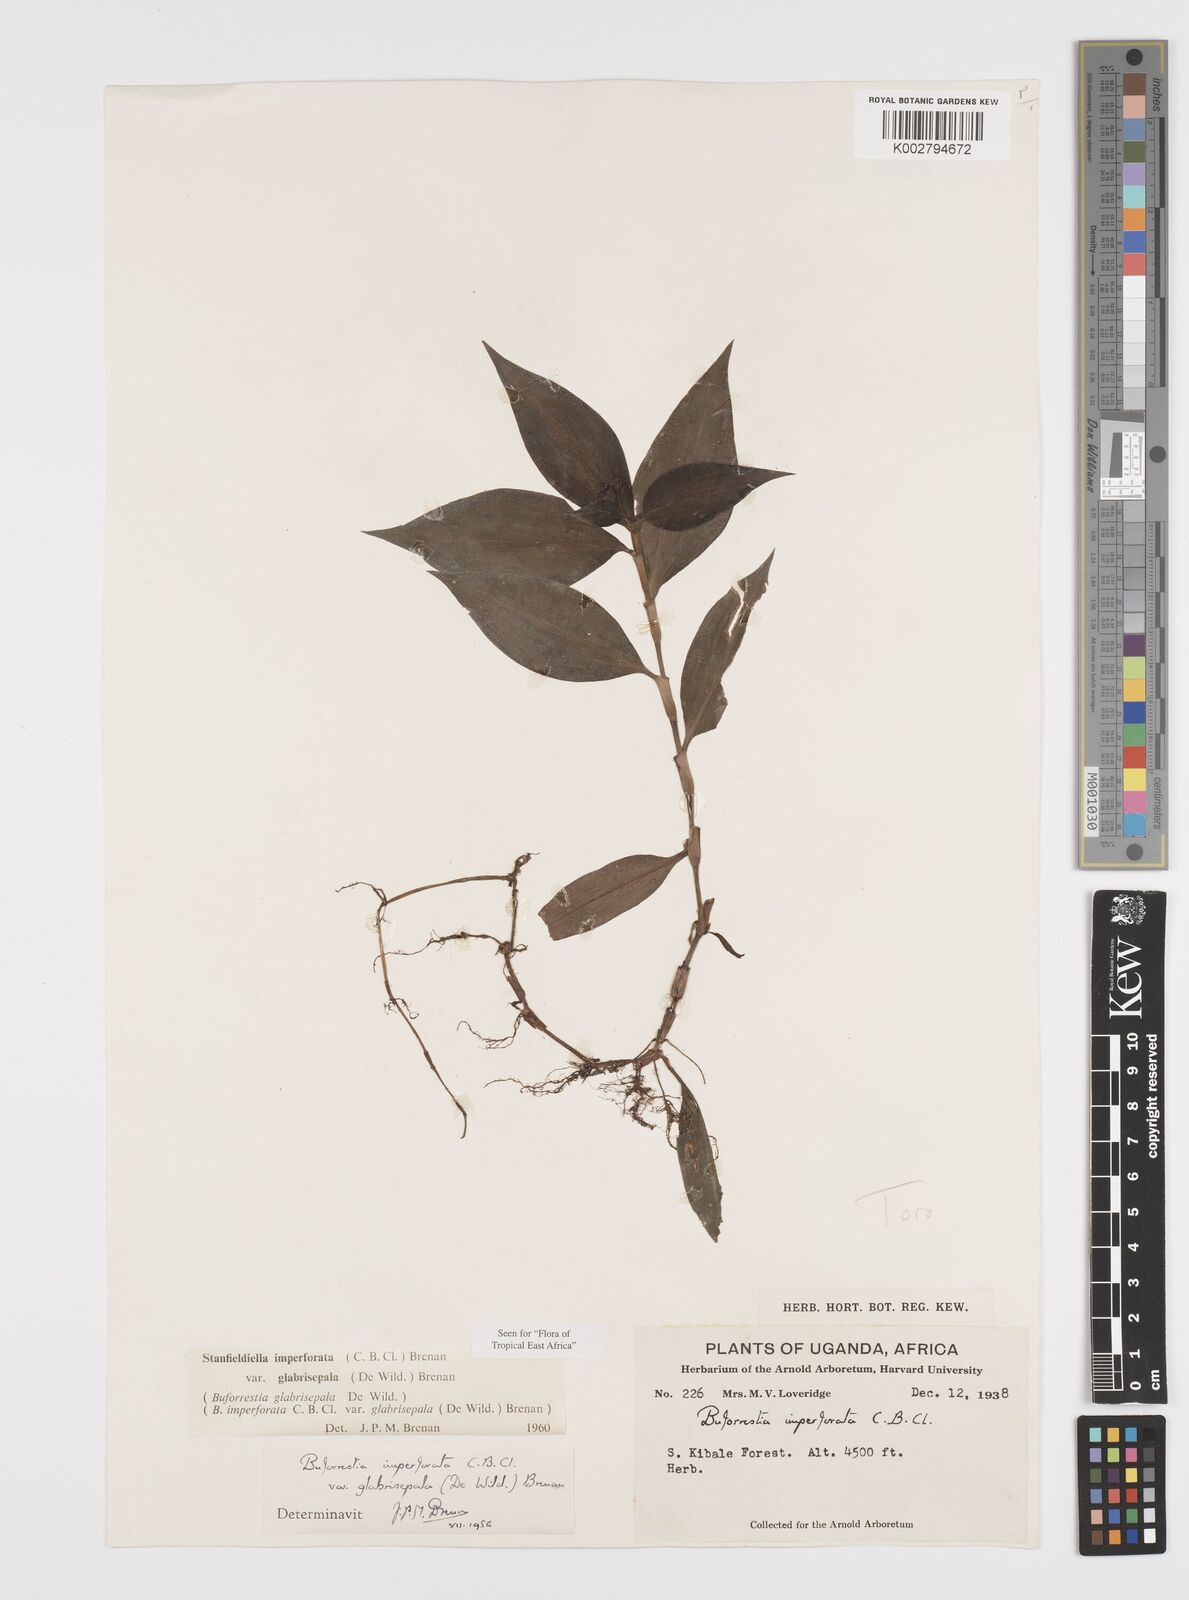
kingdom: Plantae
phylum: Tracheophyta
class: Liliopsida
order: Commelinales
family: Commelinaceae
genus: Stanfieldiella
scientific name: Stanfieldiella imperforata
